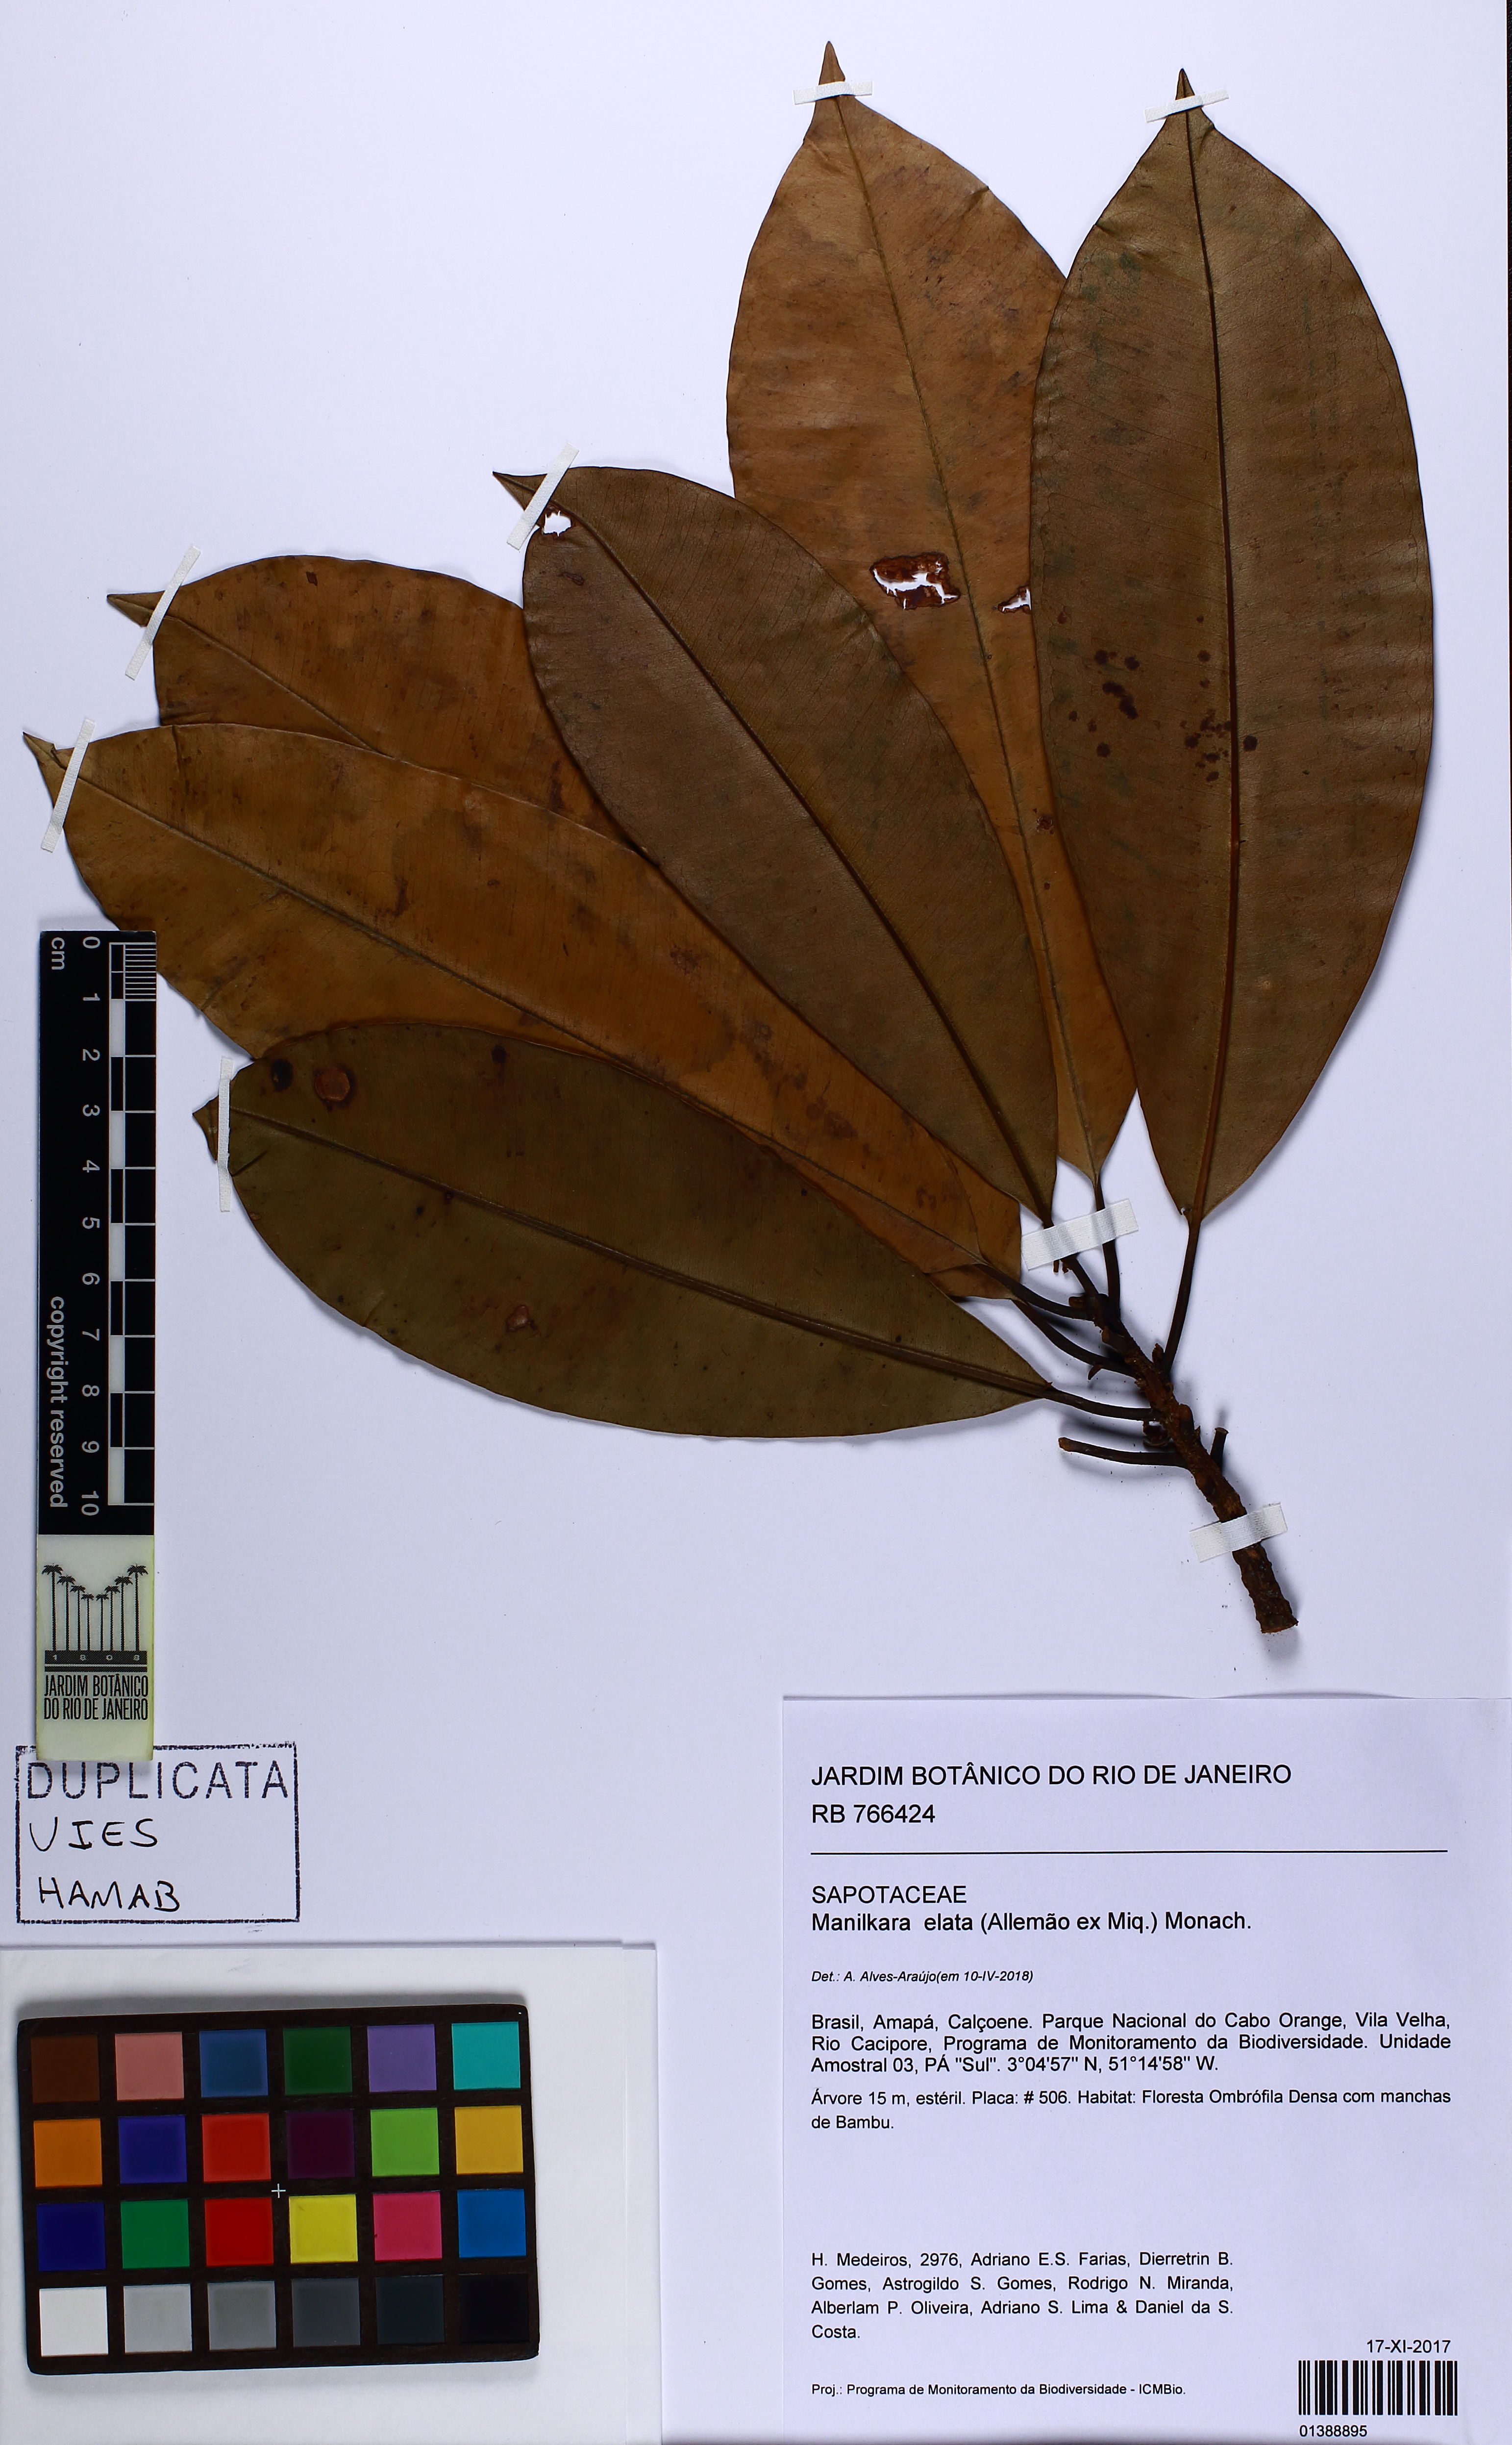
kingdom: Plantae
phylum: Tracheophyta
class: Magnoliopsida
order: Ericales
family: Sapotaceae
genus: Manilkara
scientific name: Manilkara elata
